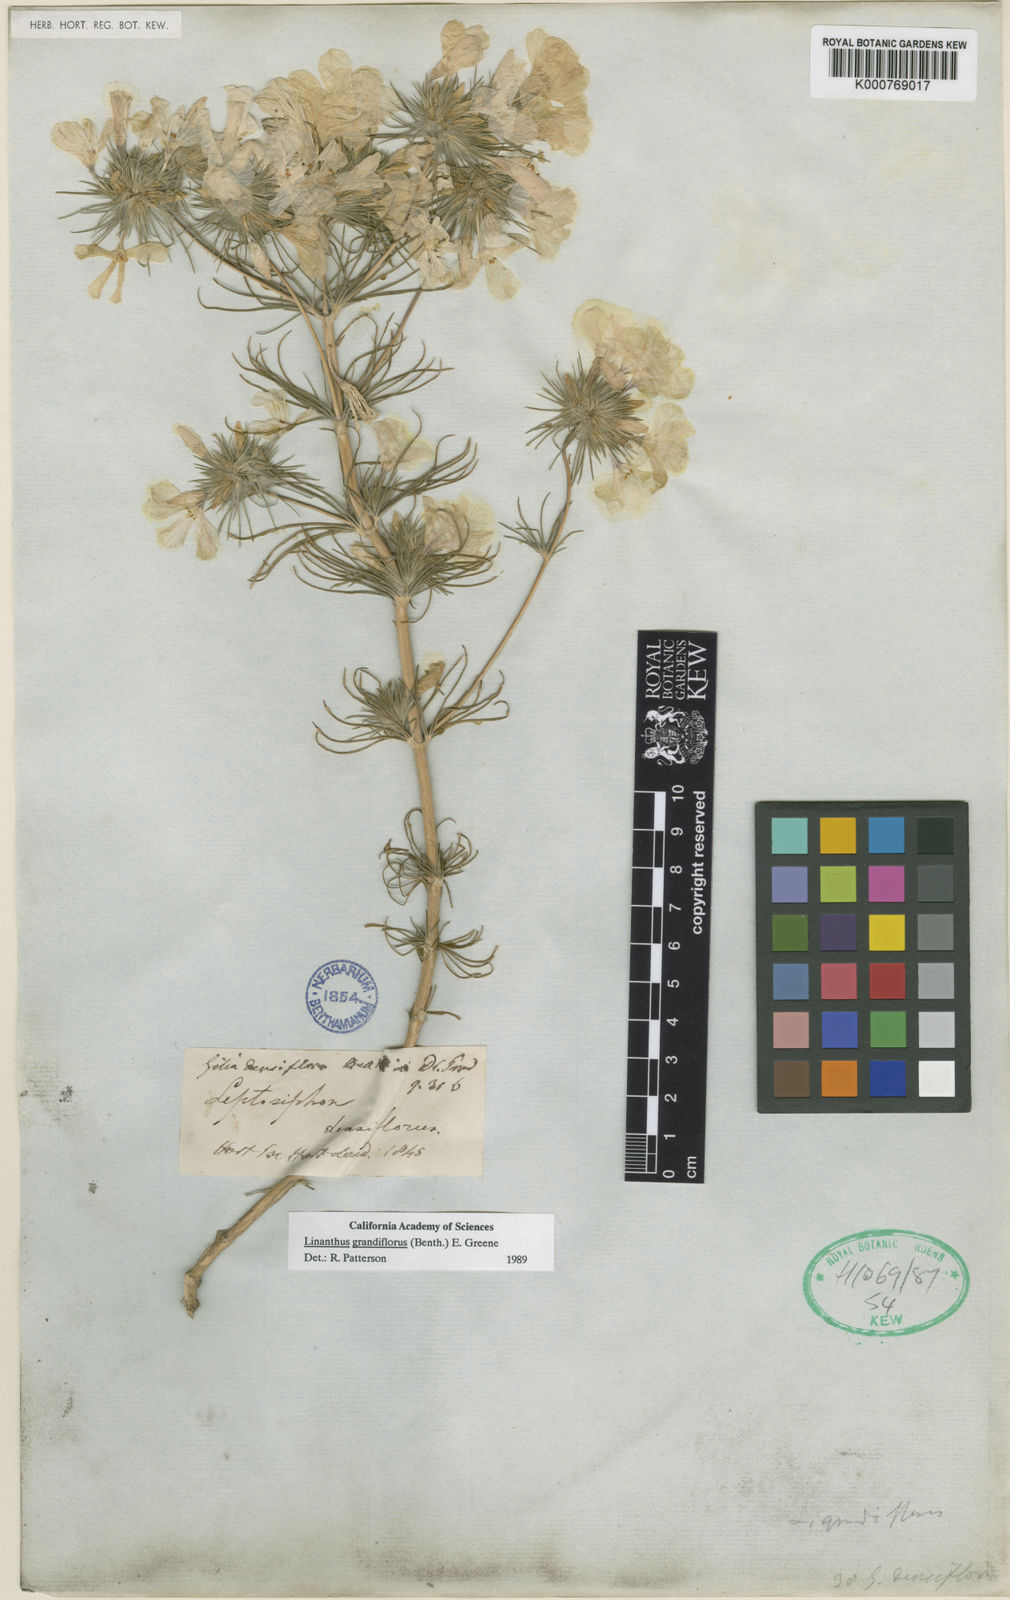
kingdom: Plantae
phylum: Tracheophyta
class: Magnoliopsida
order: Ericales
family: Polemoniaceae
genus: Leptosiphon
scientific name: Leptosiphon grandiflorus
